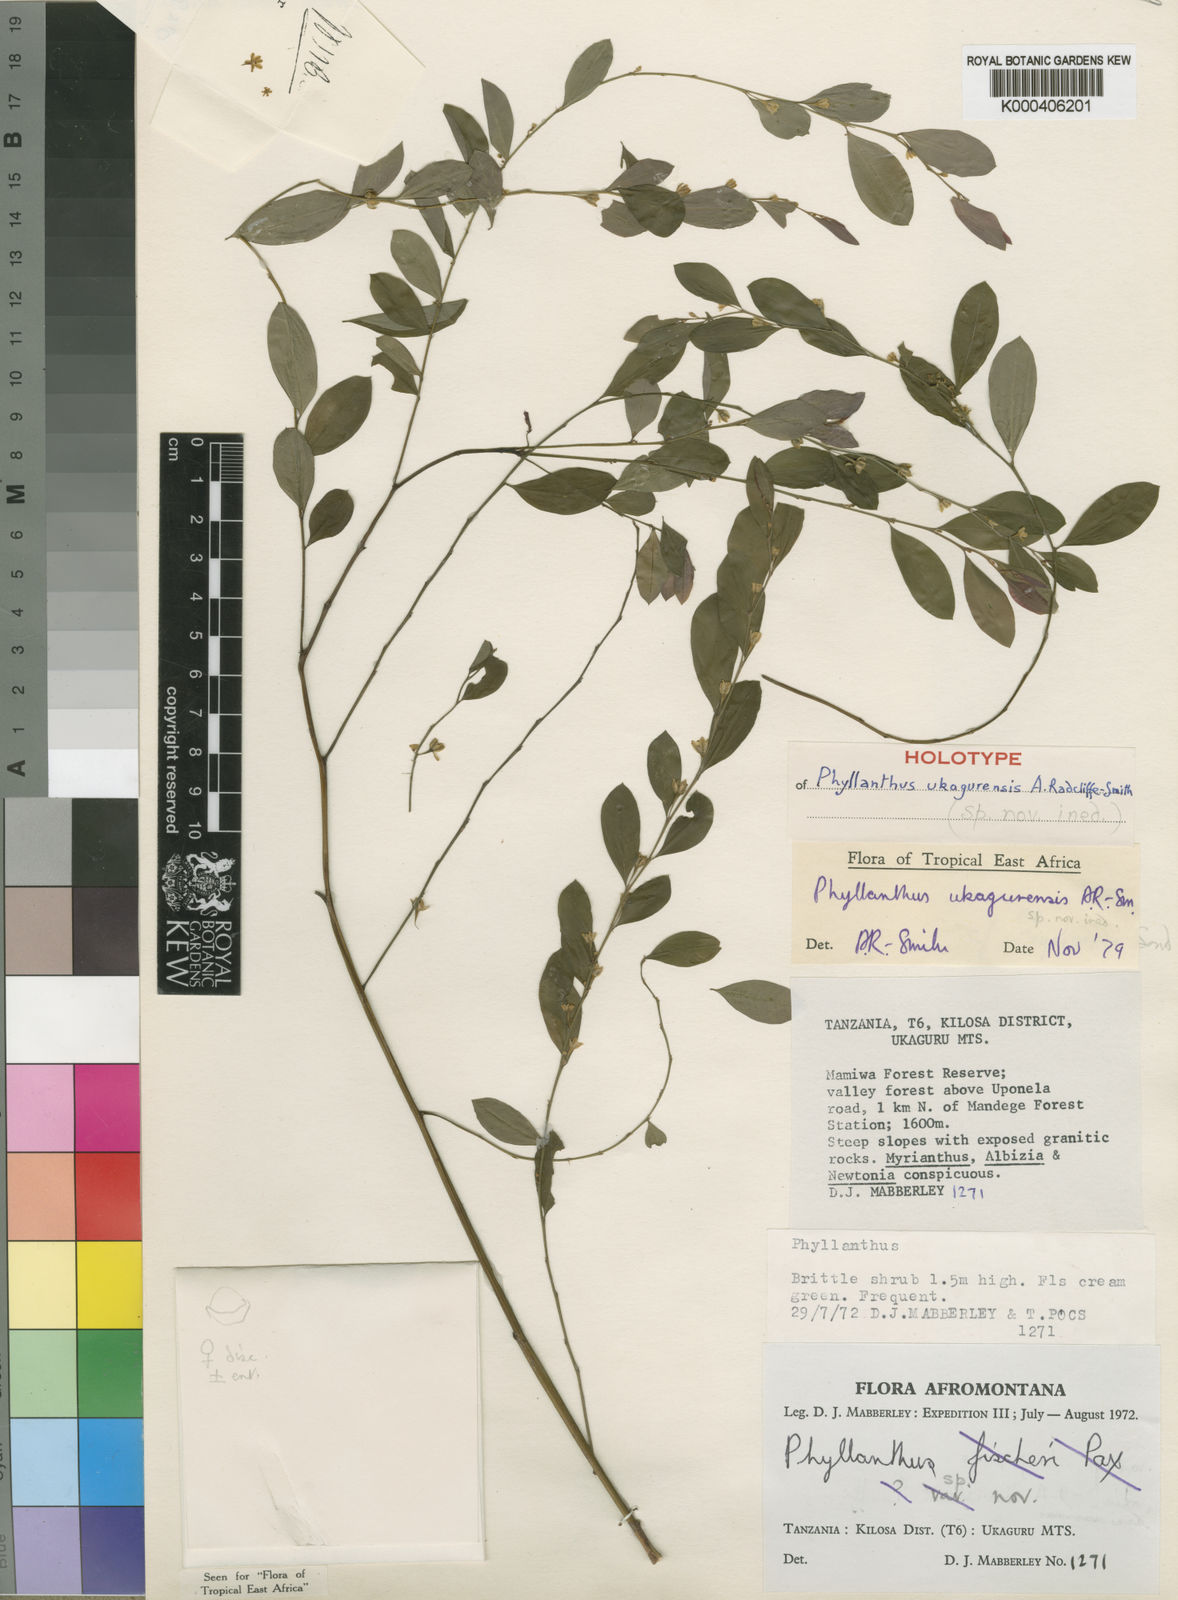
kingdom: Plantae
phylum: Tracheophyta
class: Magnoliopsida
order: Malpighiales
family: Phyllanthaceae
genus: Phyllanthus
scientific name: Phyllanthus ukagurensis
